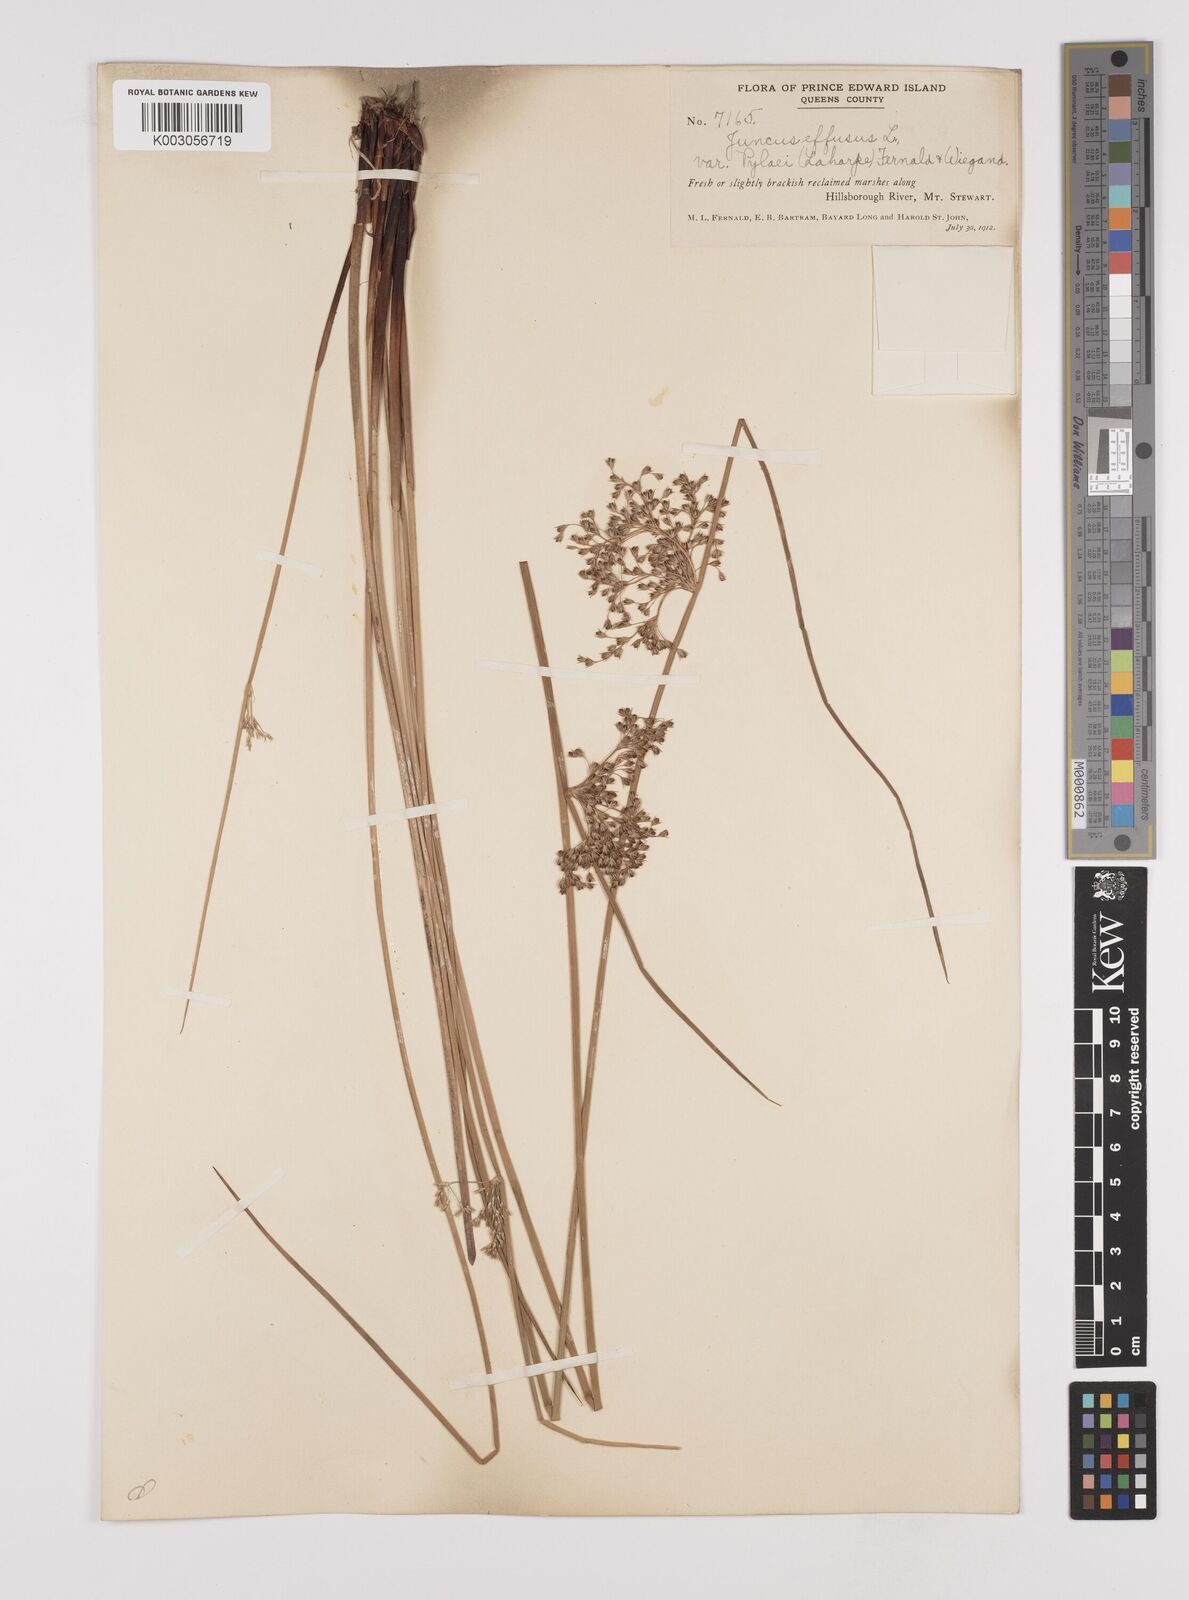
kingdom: Plantae
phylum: Tracheophyta
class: Liliopsida
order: Poales
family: Juncaceae
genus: Juncus
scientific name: Juncus pylaei
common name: Common rush
